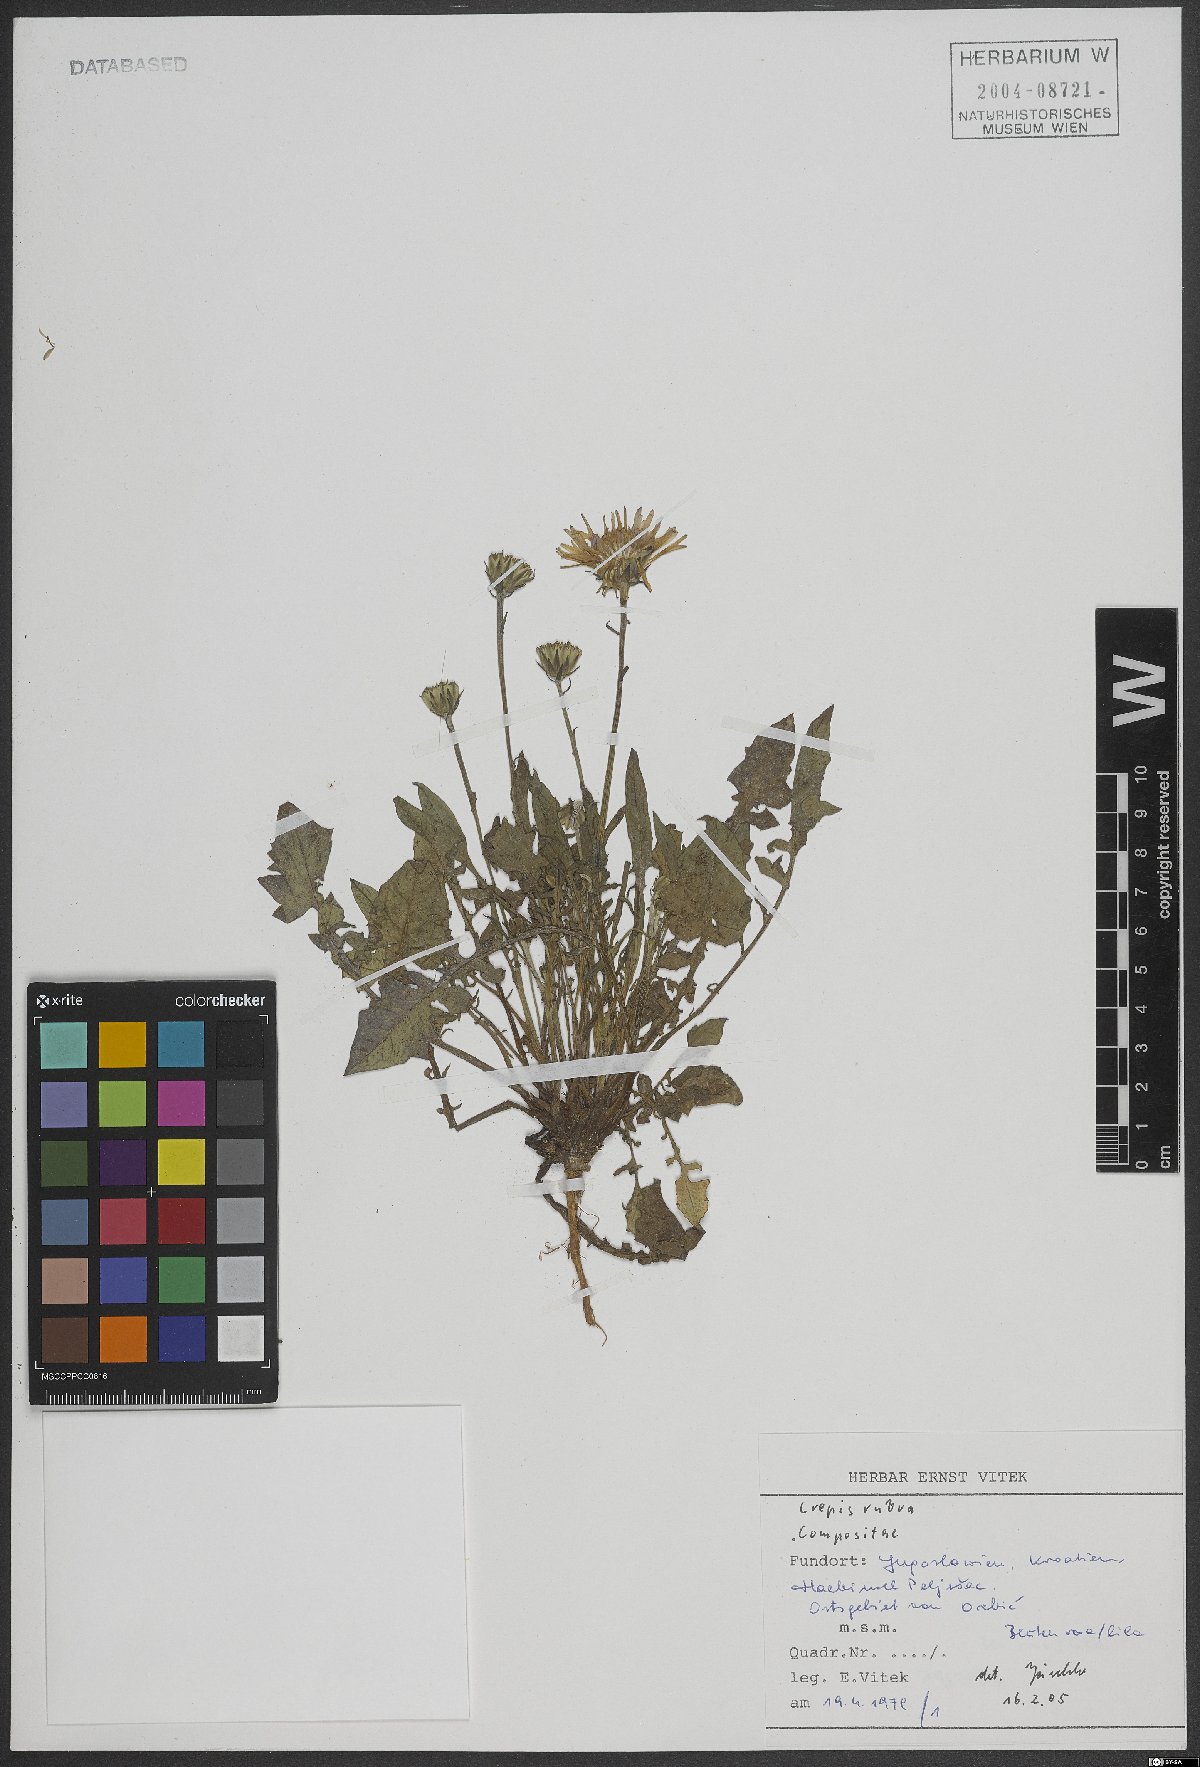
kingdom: Plantae
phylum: Tracheophyta
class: Magnoliopsida
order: Asterales
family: Asteraceae
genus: Crepis
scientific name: Crepis rubra
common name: Pink hawk's-beard
